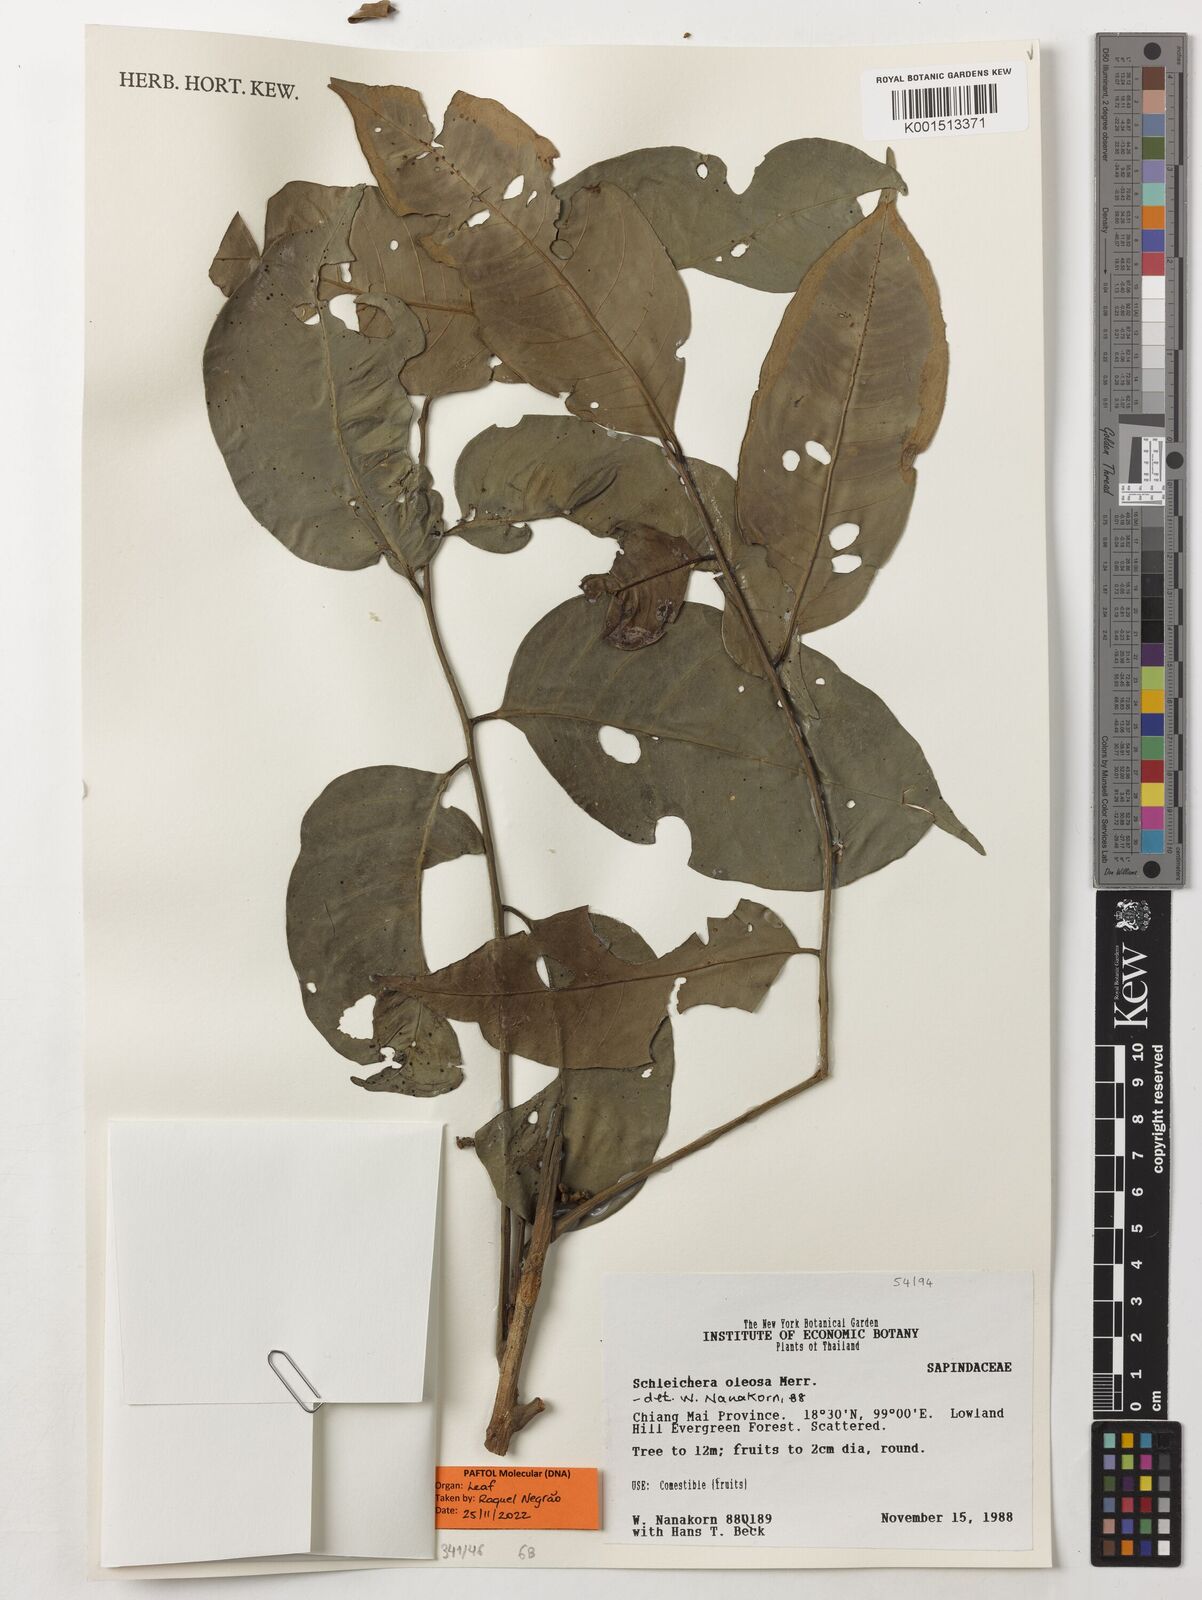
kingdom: Plantae
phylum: Tracheophyta
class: Magnoliopsida
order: Sapindales
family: Sapindaceae
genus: Schleichera
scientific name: Schleichera oleosa
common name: Malay lactree
